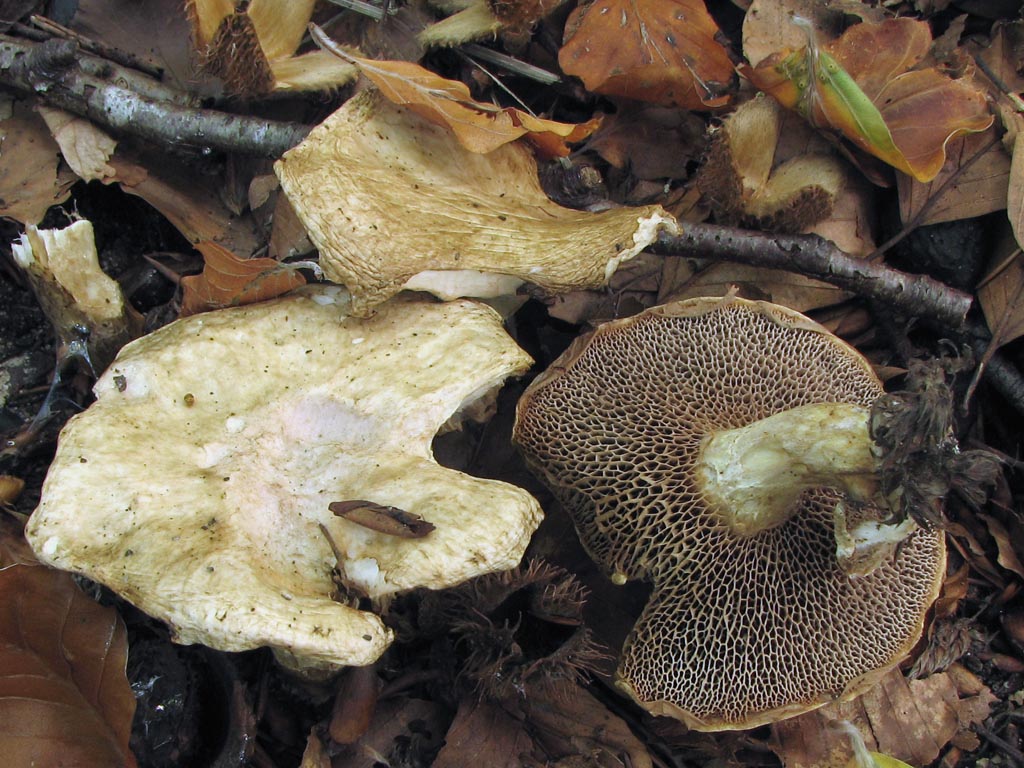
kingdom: Fungi
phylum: Basidiomycota
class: Agaricomycetes
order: Boletales
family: Suillaceae
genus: Suillus
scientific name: Suillus viscidus
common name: olivengrå slimrørhat
